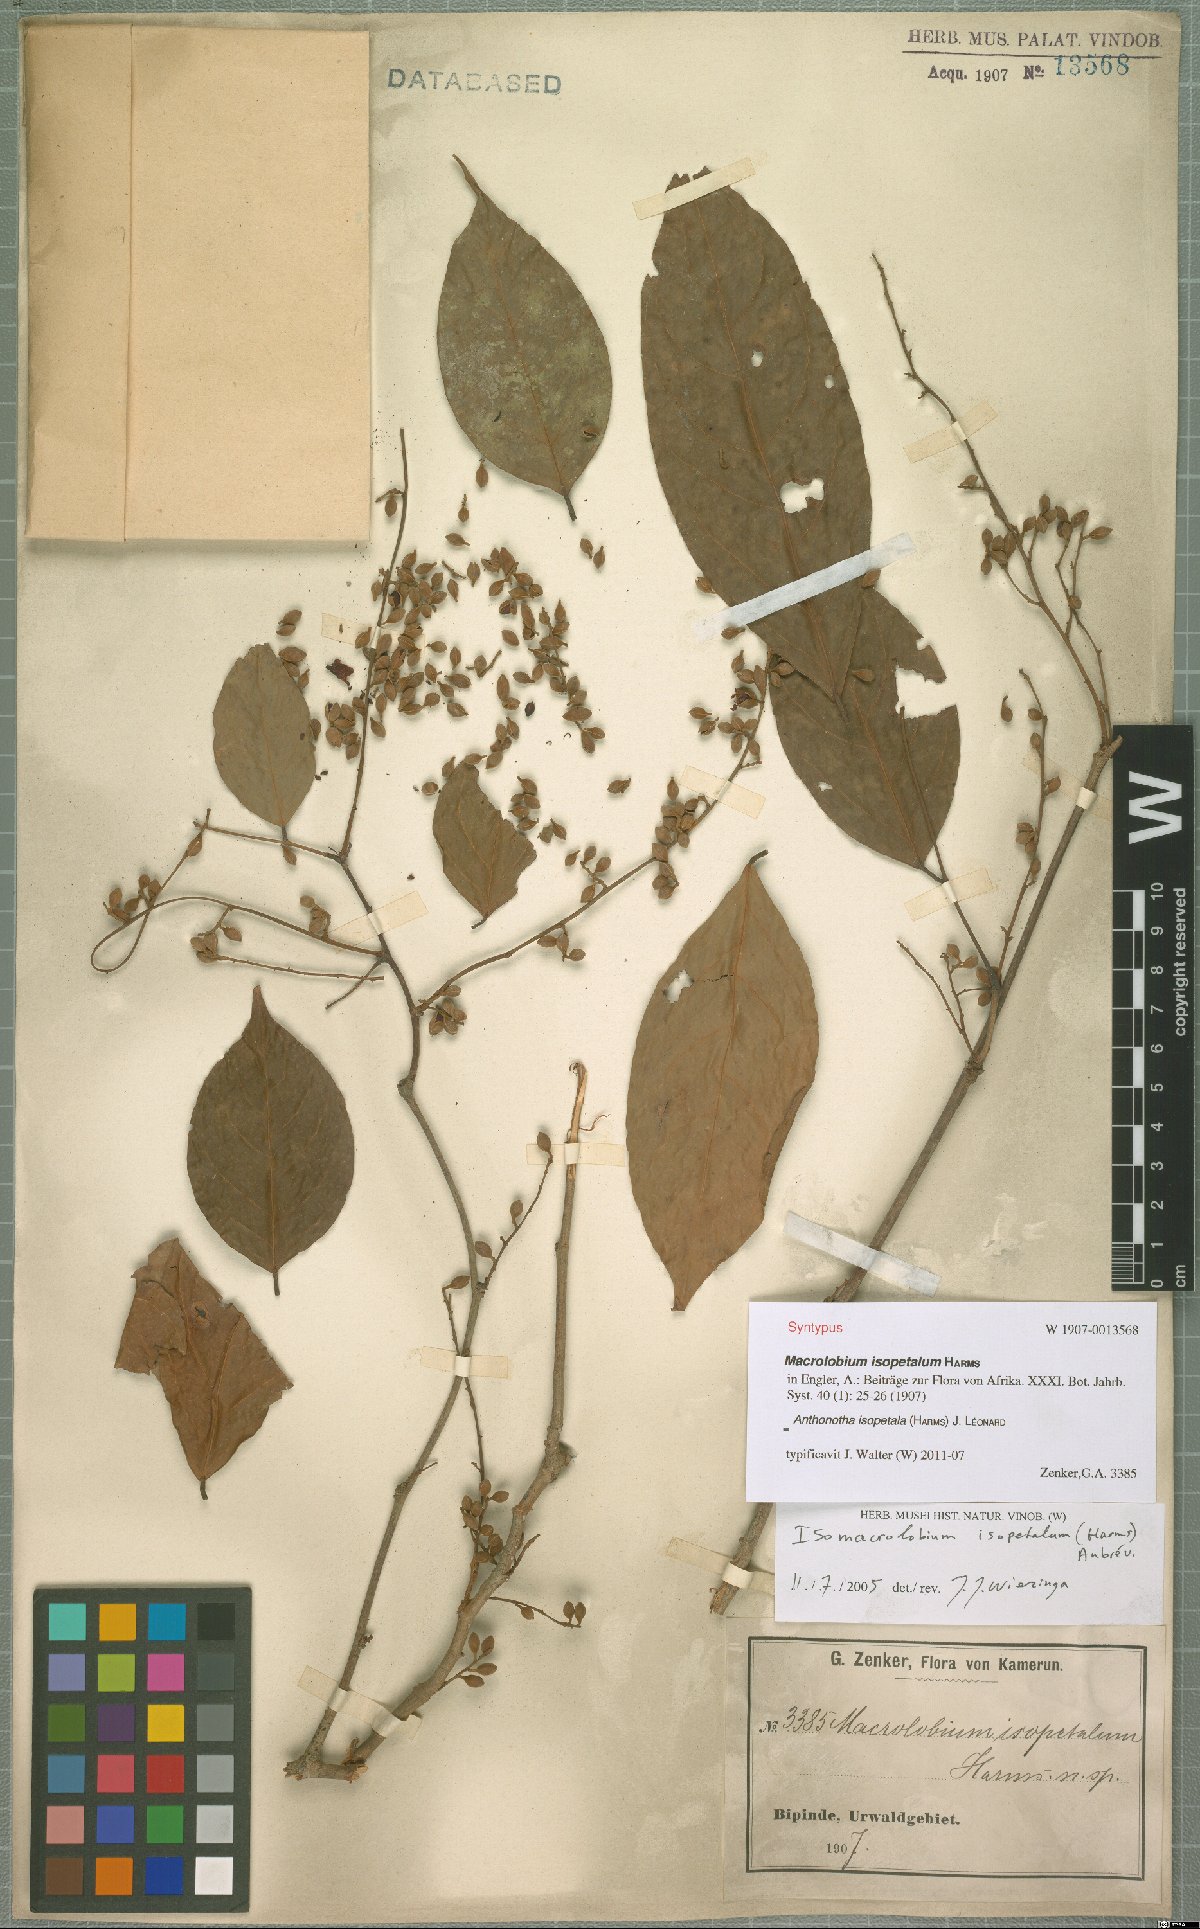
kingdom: Plantae
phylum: Tracheophyta
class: Magnoliopsida
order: Fabales
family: Fabaceae
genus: Englerodendron
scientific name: Englerodendron isopetalum
